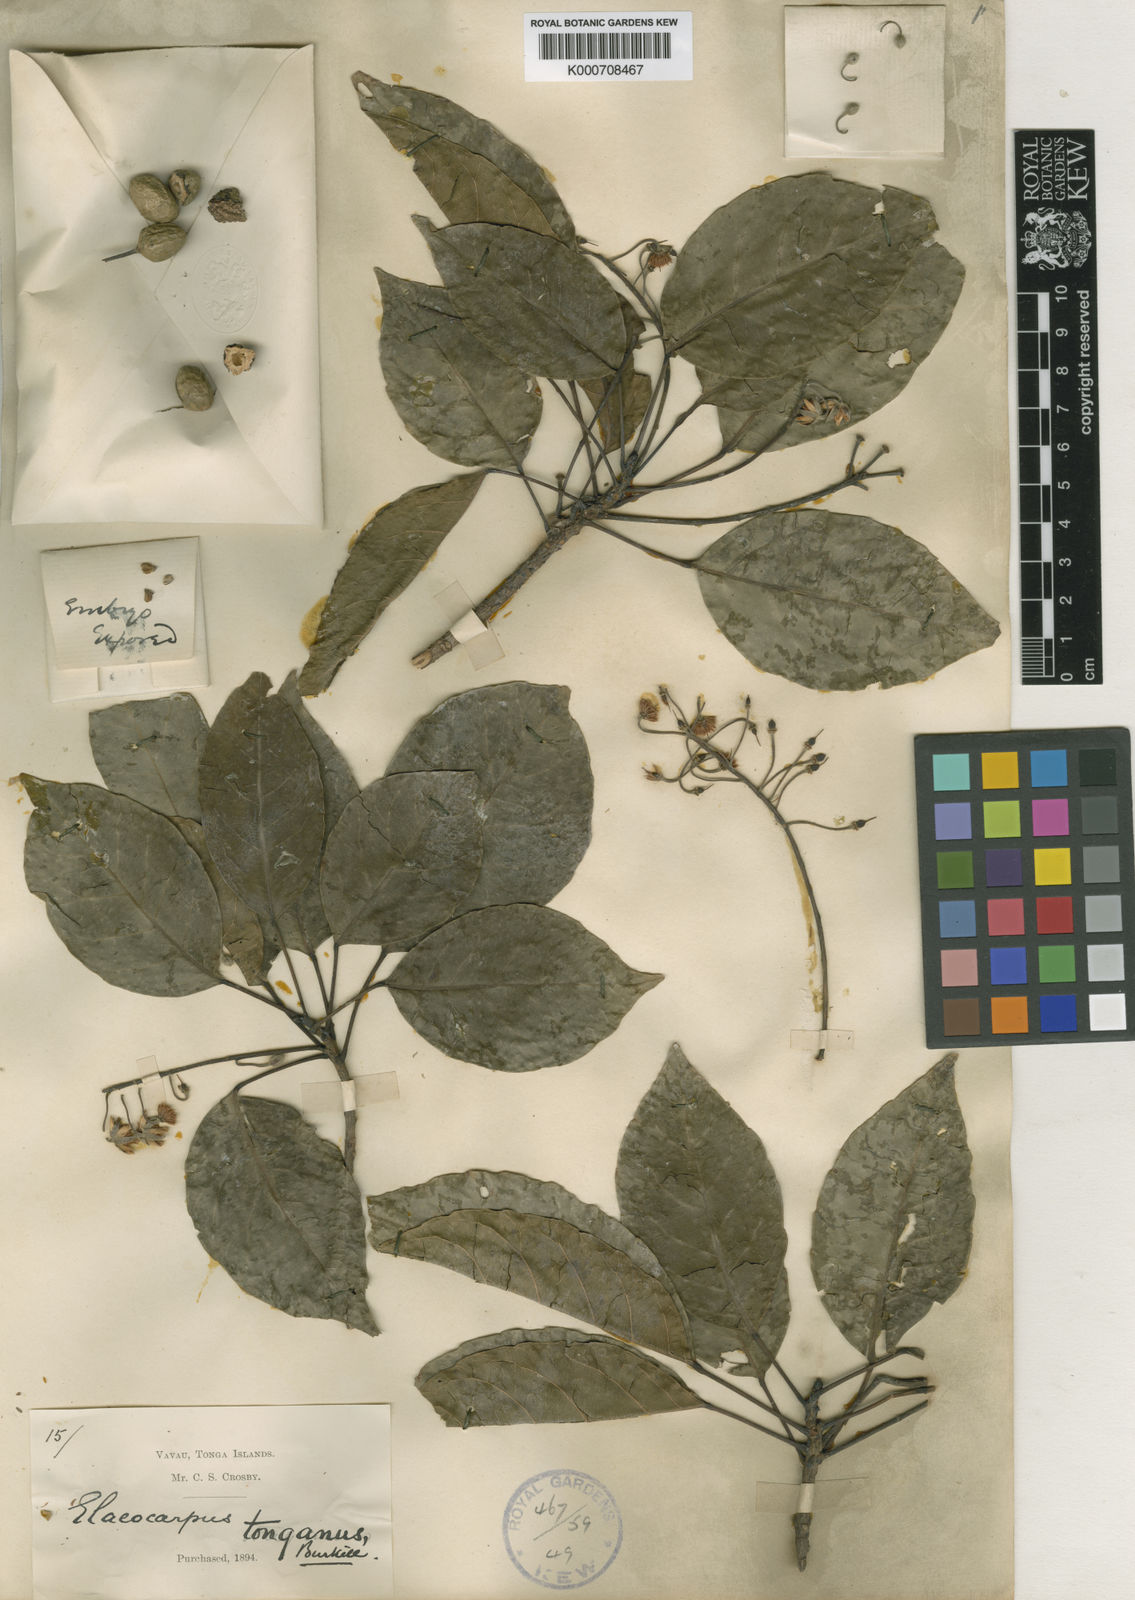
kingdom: Plantae
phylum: Tracheophyta
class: Magnoliopsida
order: Oxalidales
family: Elaeocarpaceae
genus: Elaeocarpus
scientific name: Elaeocarpus floridanus
